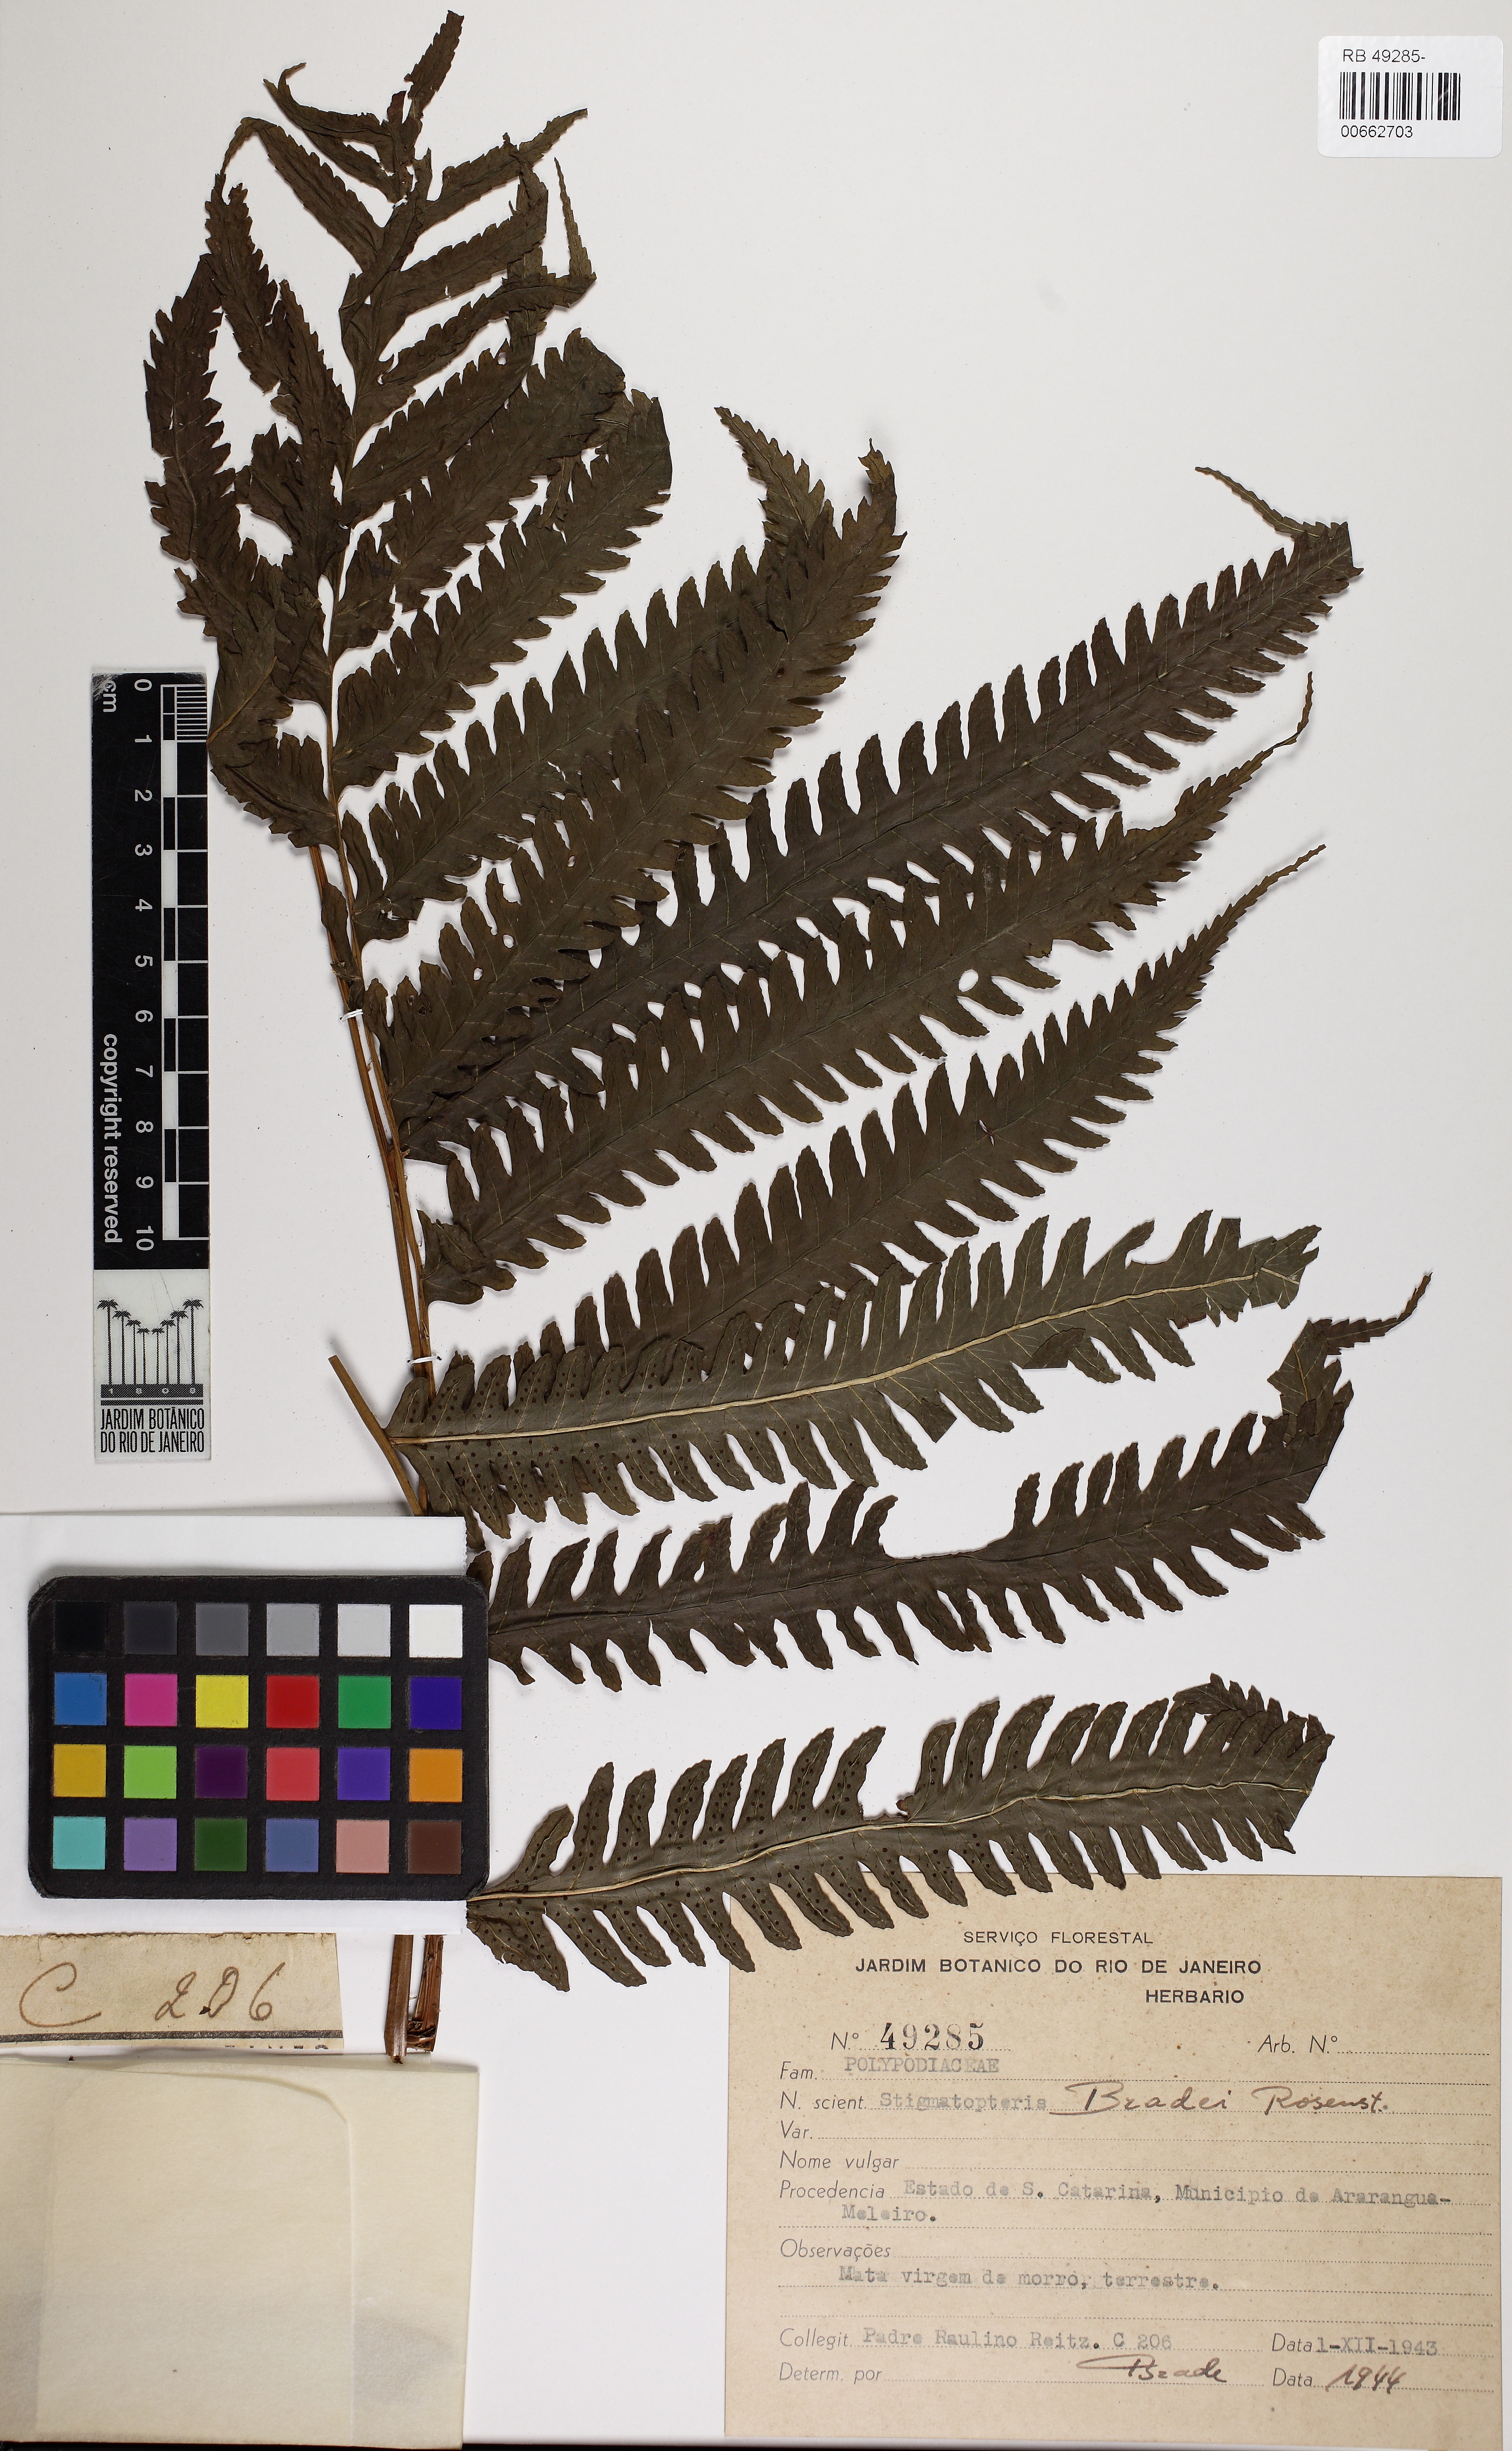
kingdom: Plantae
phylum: Tracheophyta
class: Polypodiopsida
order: Polypodiales
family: Dryopteridaceae
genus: Stigmatopteris
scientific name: Stigmatopteris brevinervis
